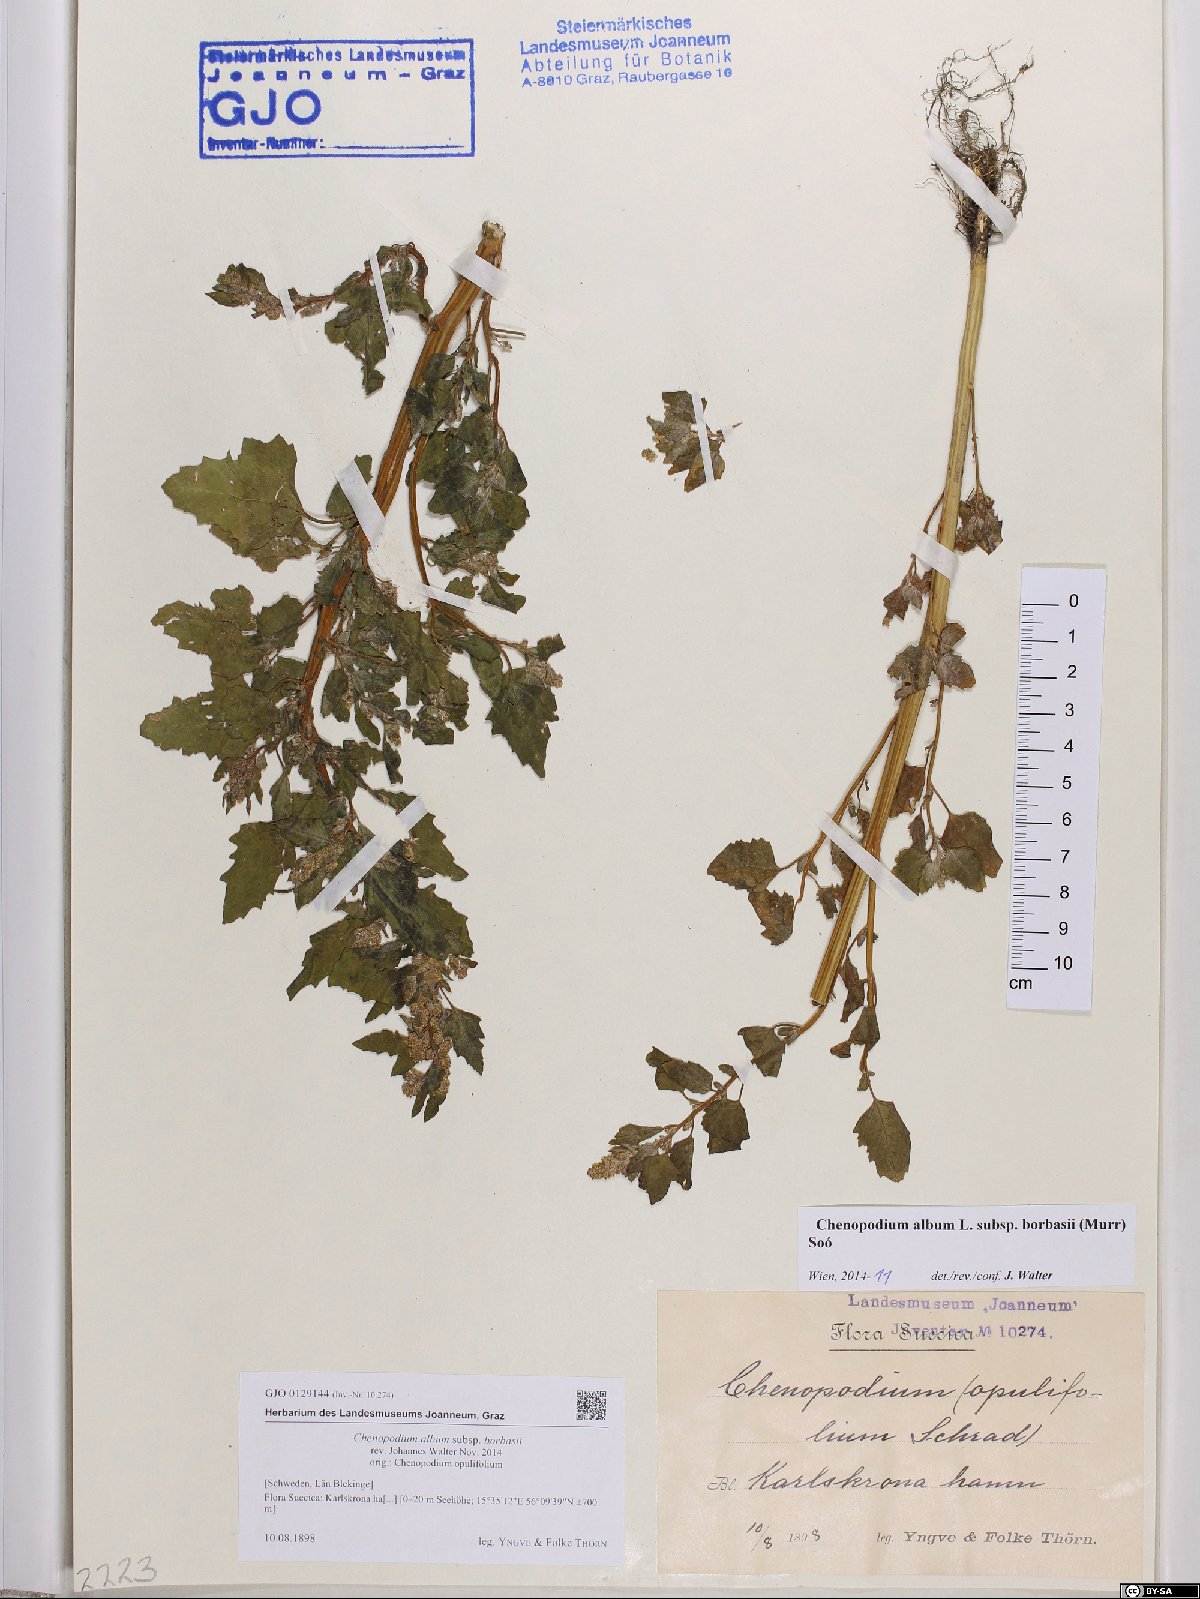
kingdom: Plantae
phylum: Tracheophyta
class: Magnoliopsida
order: Caryophyllales
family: Amaranthaceae
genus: Chenopodium
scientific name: Chenopodium borbasii
